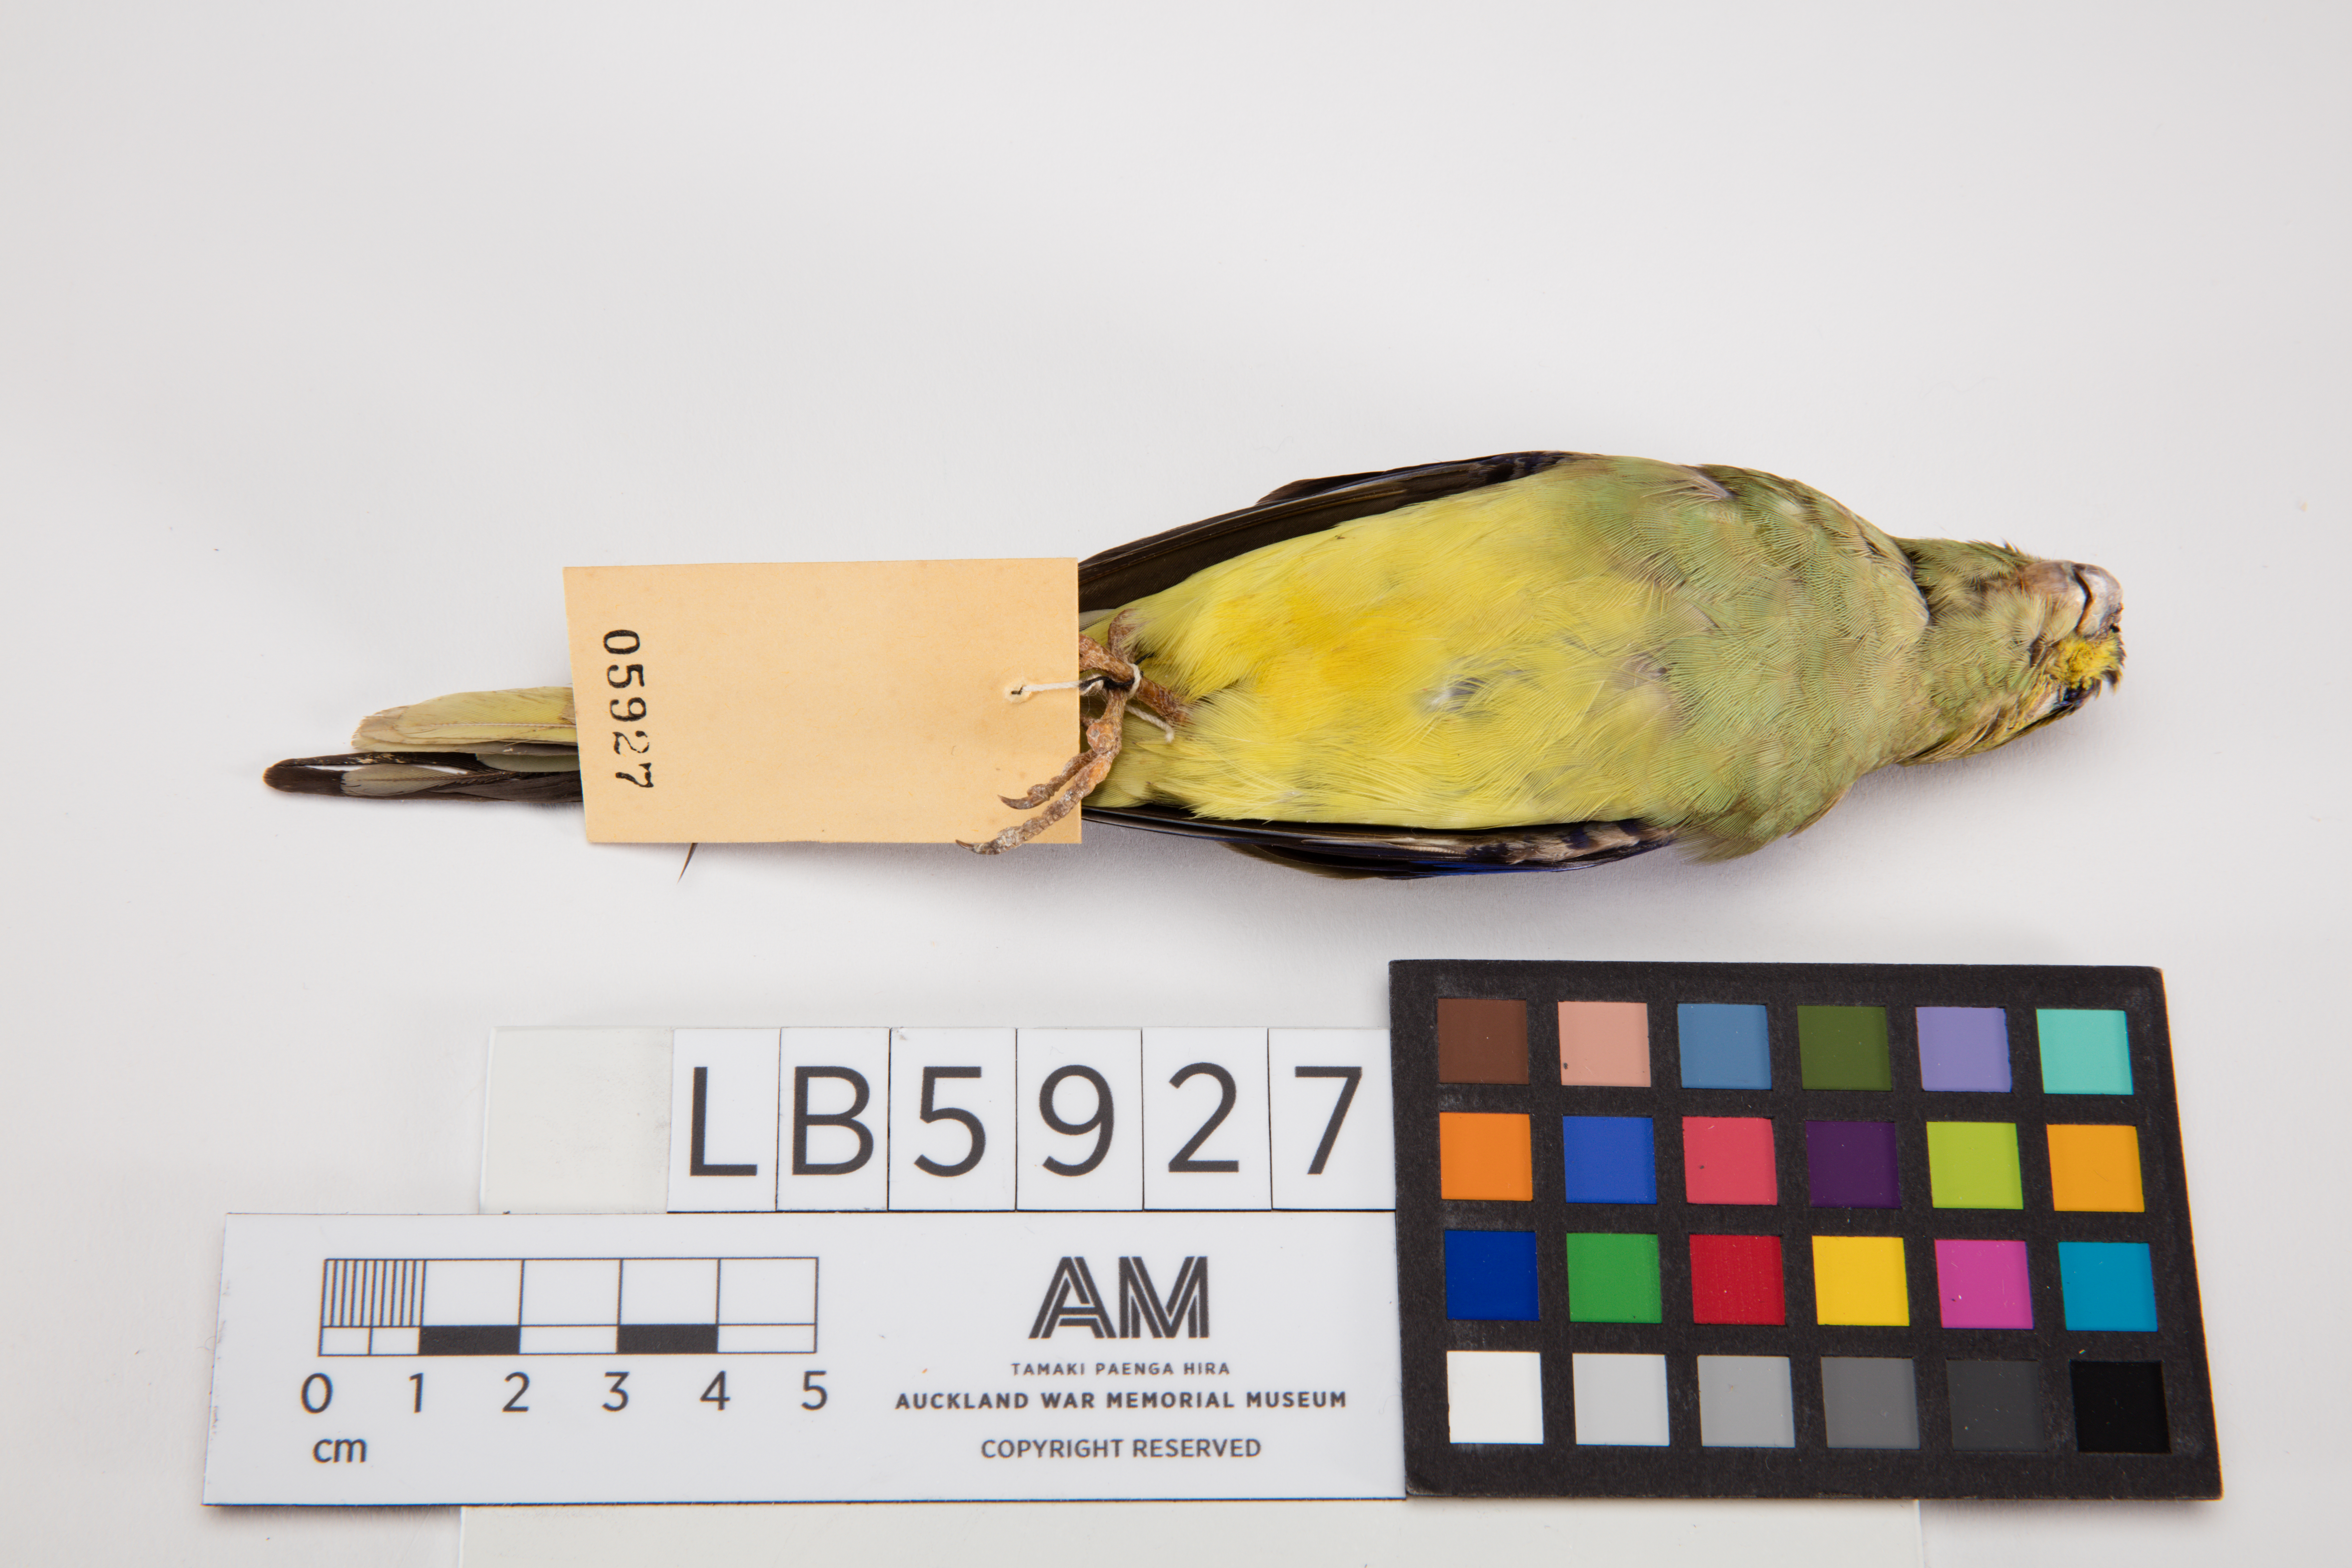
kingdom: Animalia
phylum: Chordata
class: Aves
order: Psittaciformes
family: Psittacidae
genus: Neophema
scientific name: Neophema chrysostoma
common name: Blue-winged parrot
